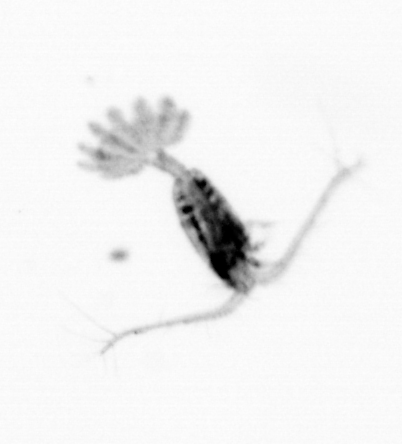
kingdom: Animalia
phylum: Arthropoda
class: Copepoda
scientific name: Copepoda
